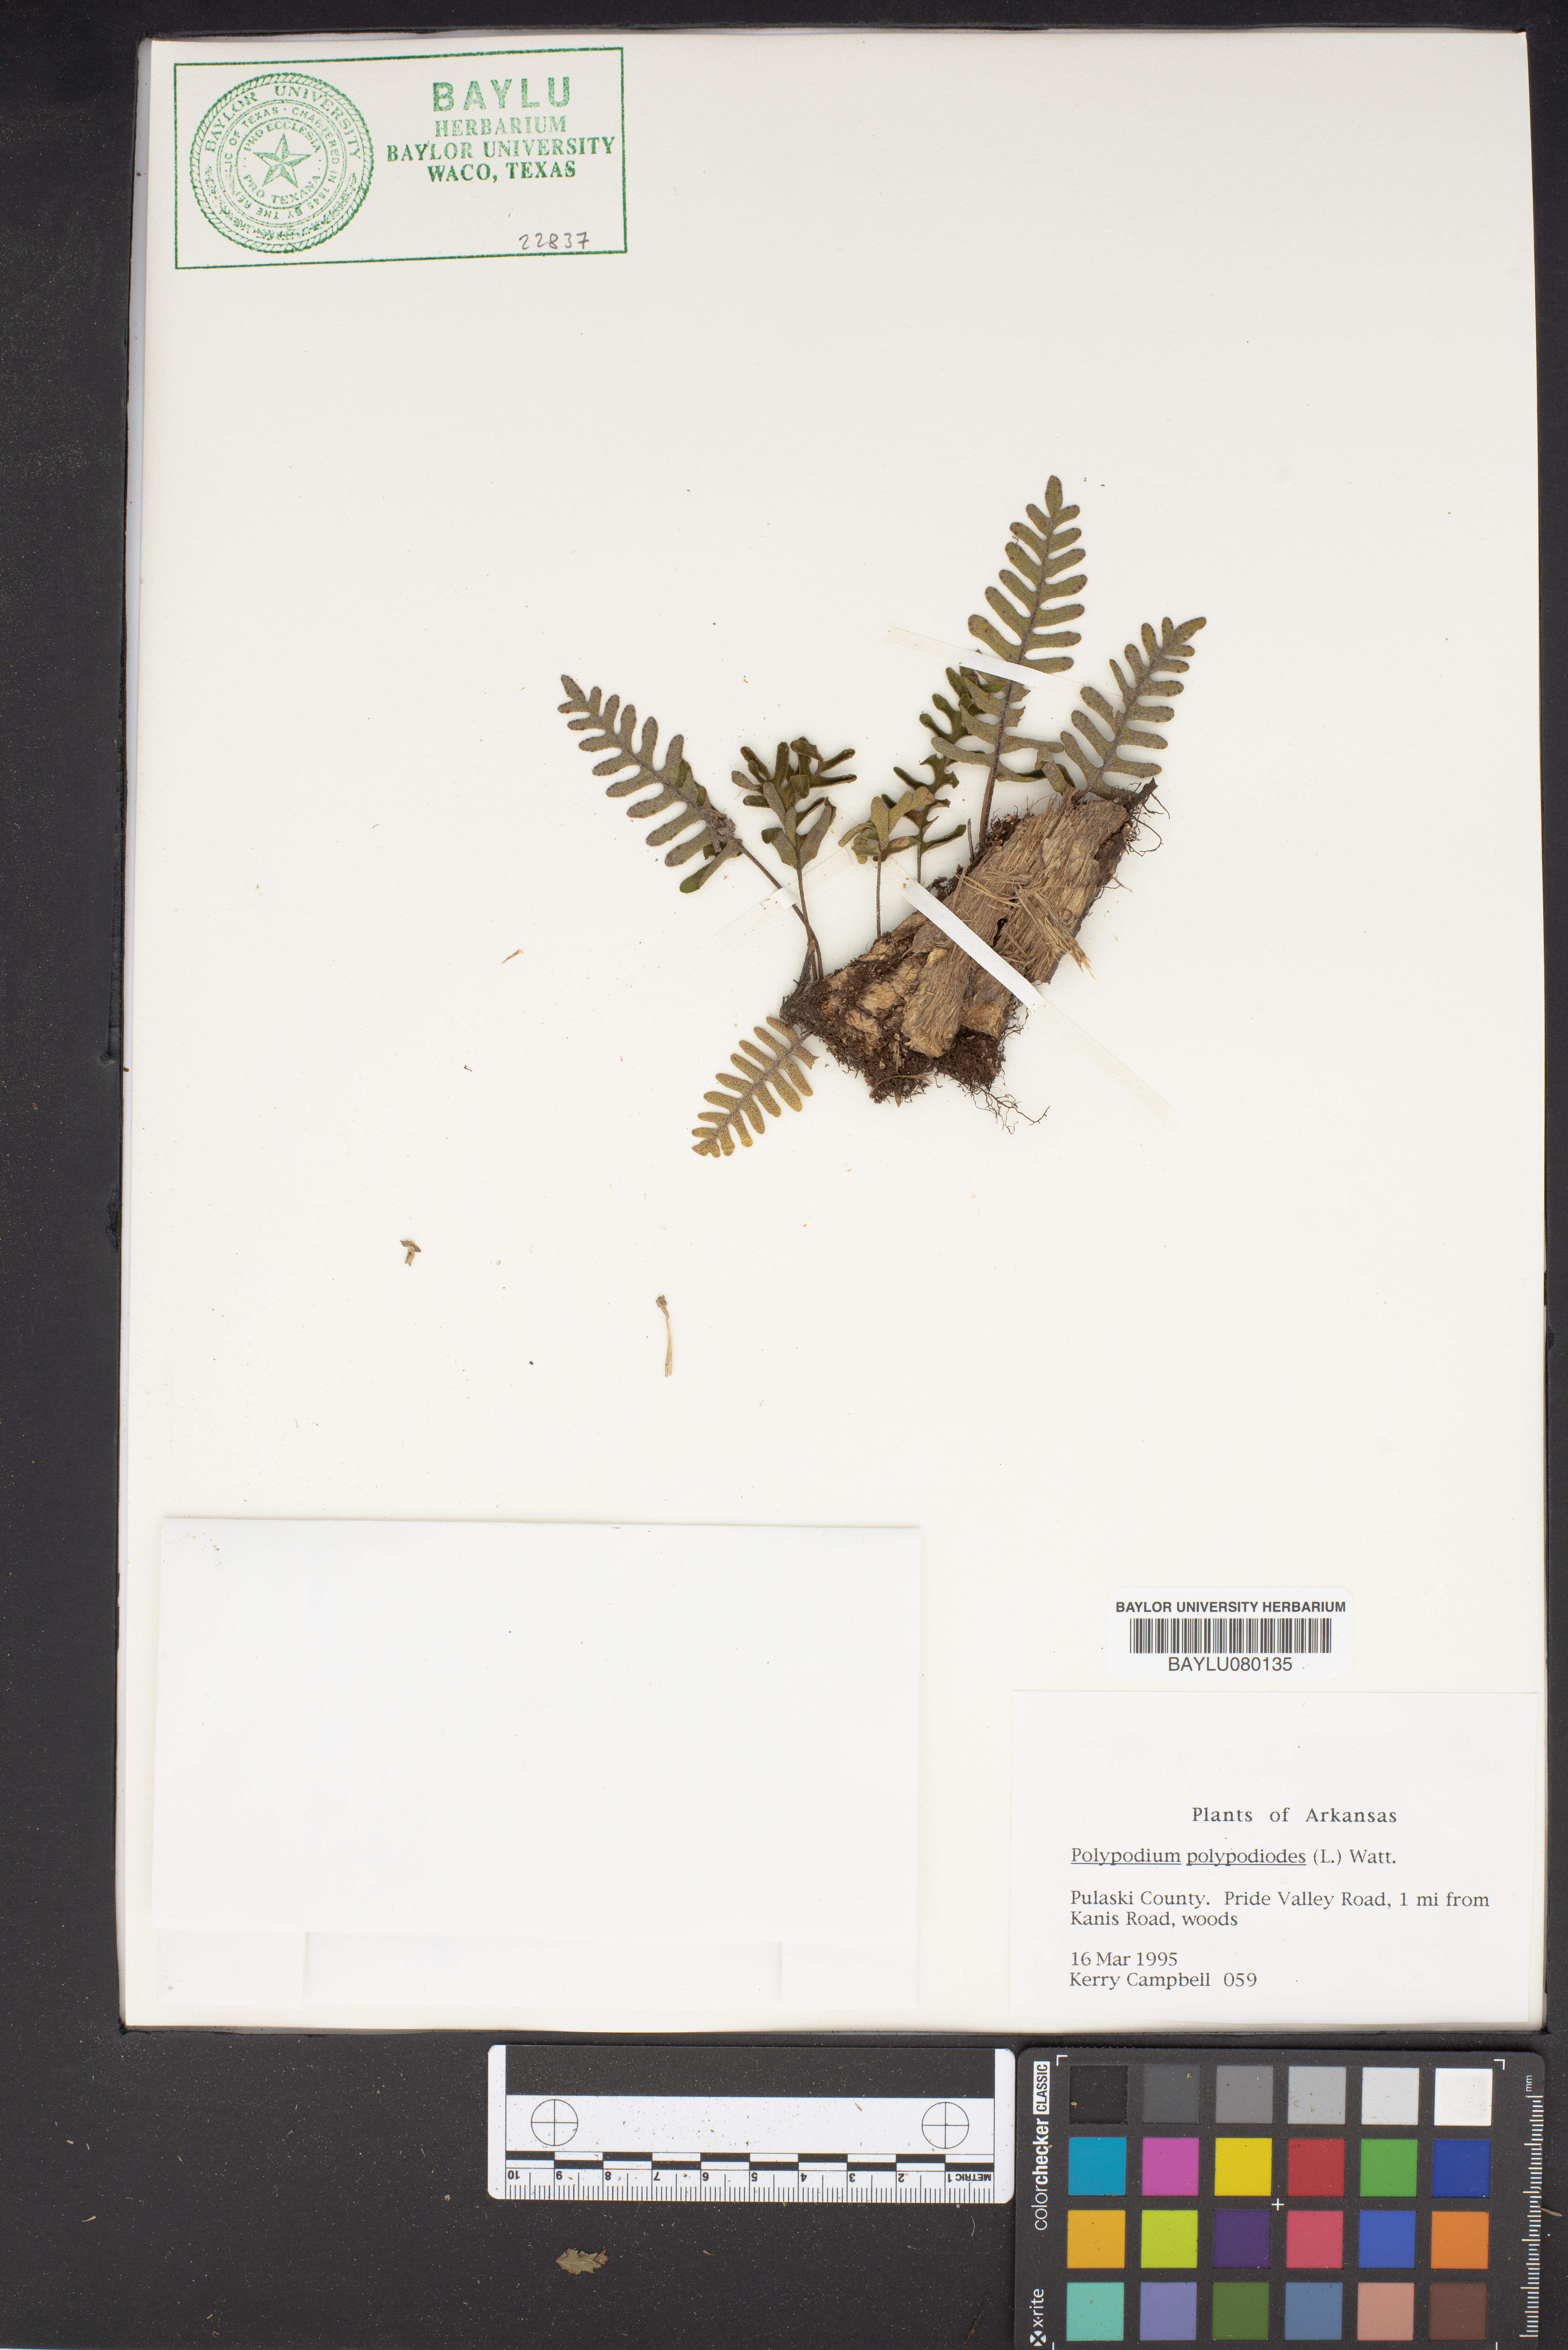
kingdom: Plantae
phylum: Tracheophyta
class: Polypodiopsida
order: Polypodiales
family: Polypodiaceae
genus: Pleopeltis
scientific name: Pleopeltis polypodioides
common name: Resurrection fern
